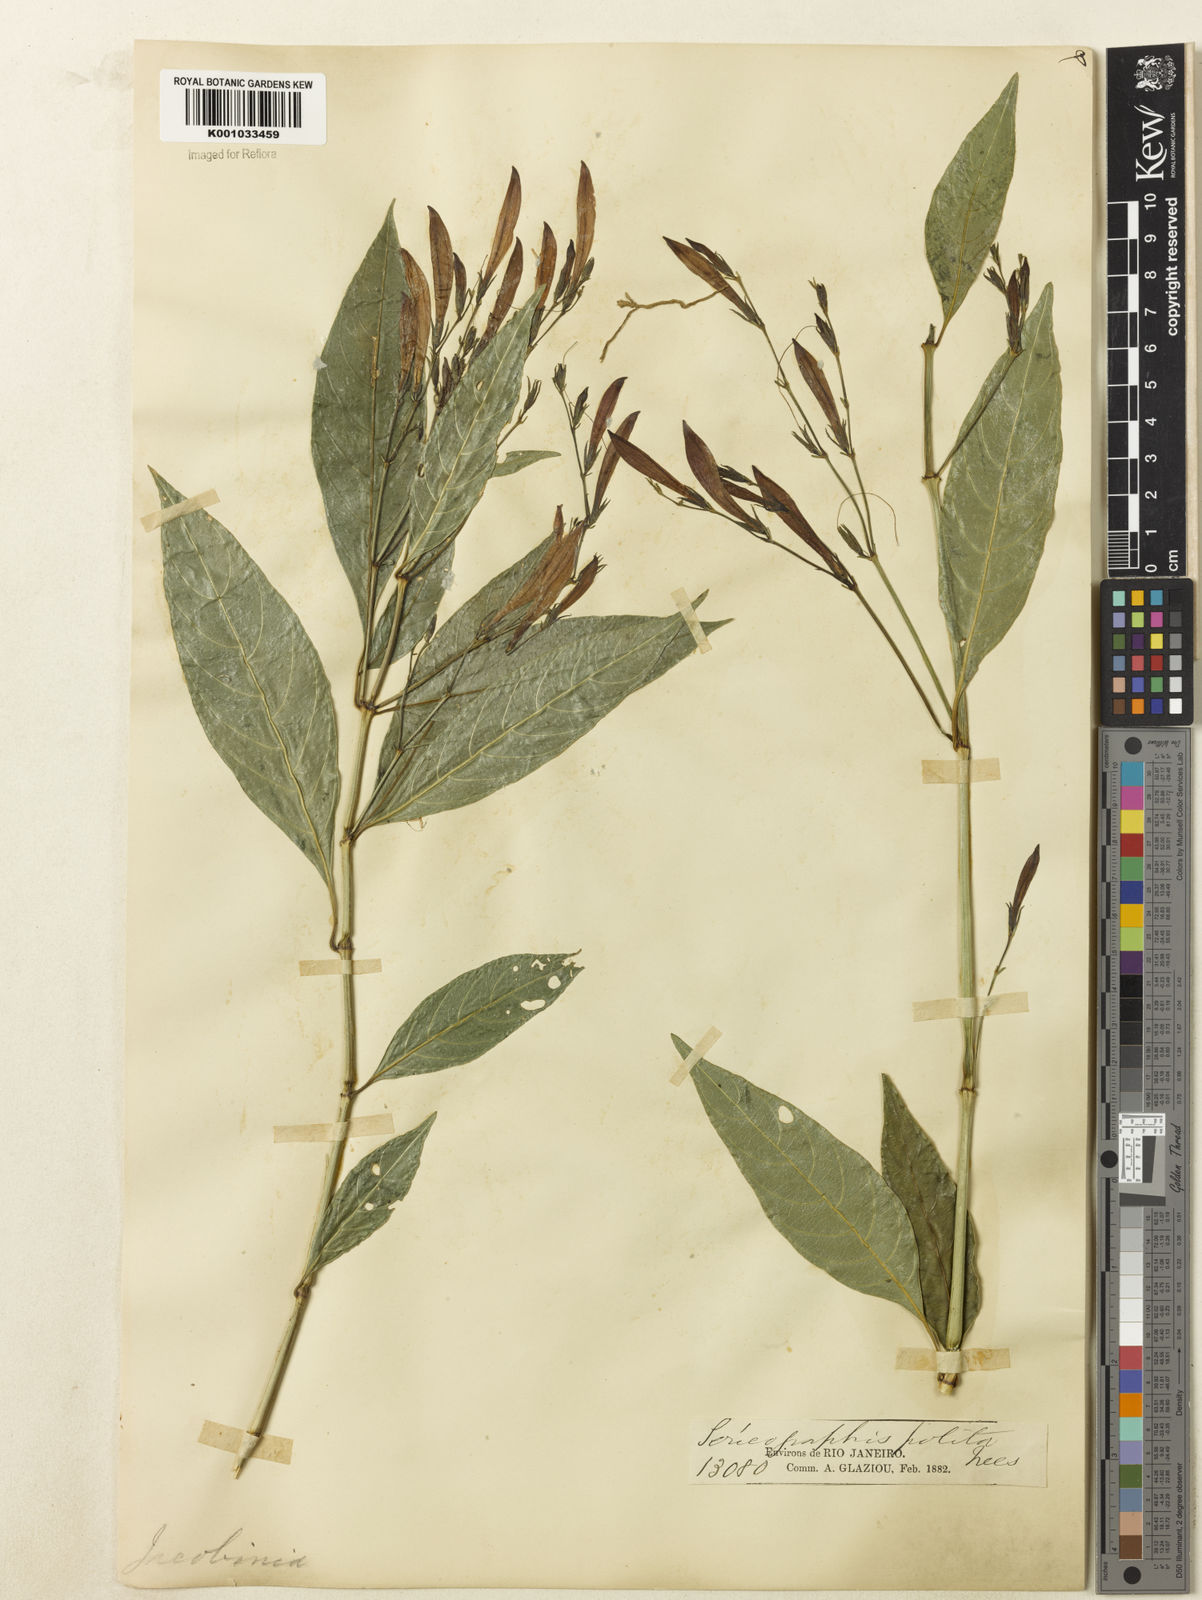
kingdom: Plantae
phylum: Tracheophyta
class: Magnoliopsida
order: Lamiales
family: Acanthaceae
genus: Justicia
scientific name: Justicia polita
